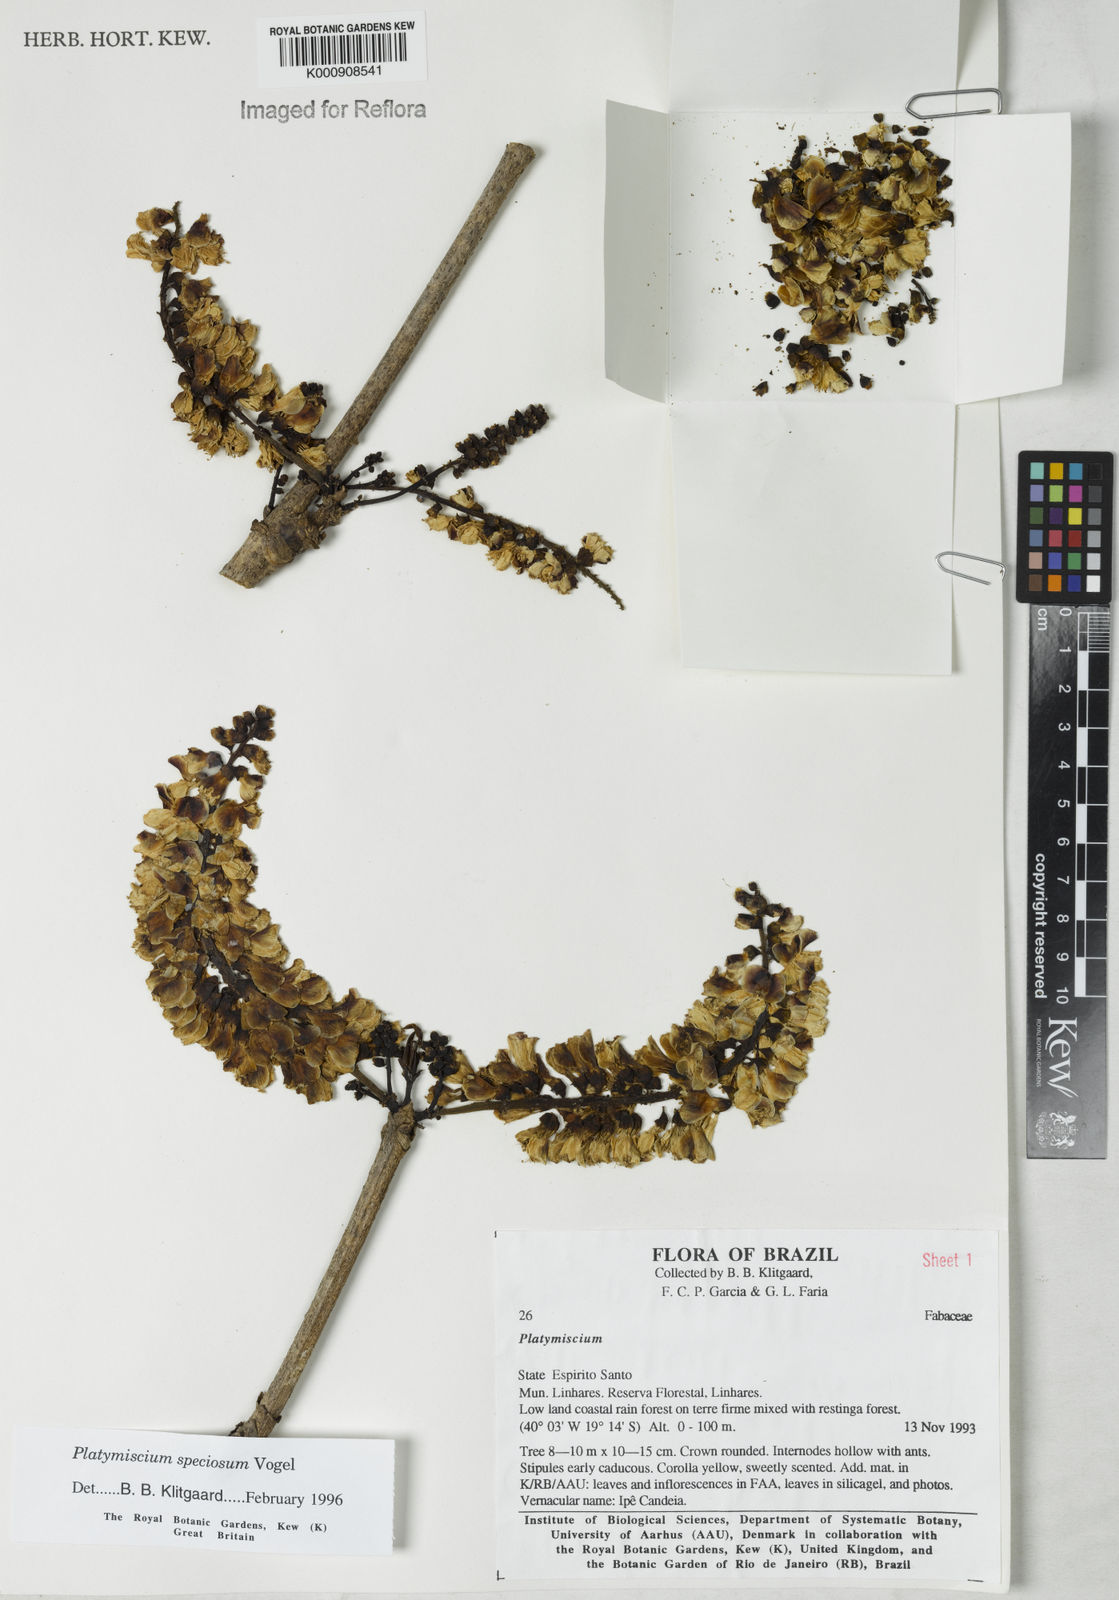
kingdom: Plantae
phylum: Tracheophyta
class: Magnoliopsida
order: Fabales
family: Fabaceae
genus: Platymiscium
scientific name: Platymiscium speciosum
